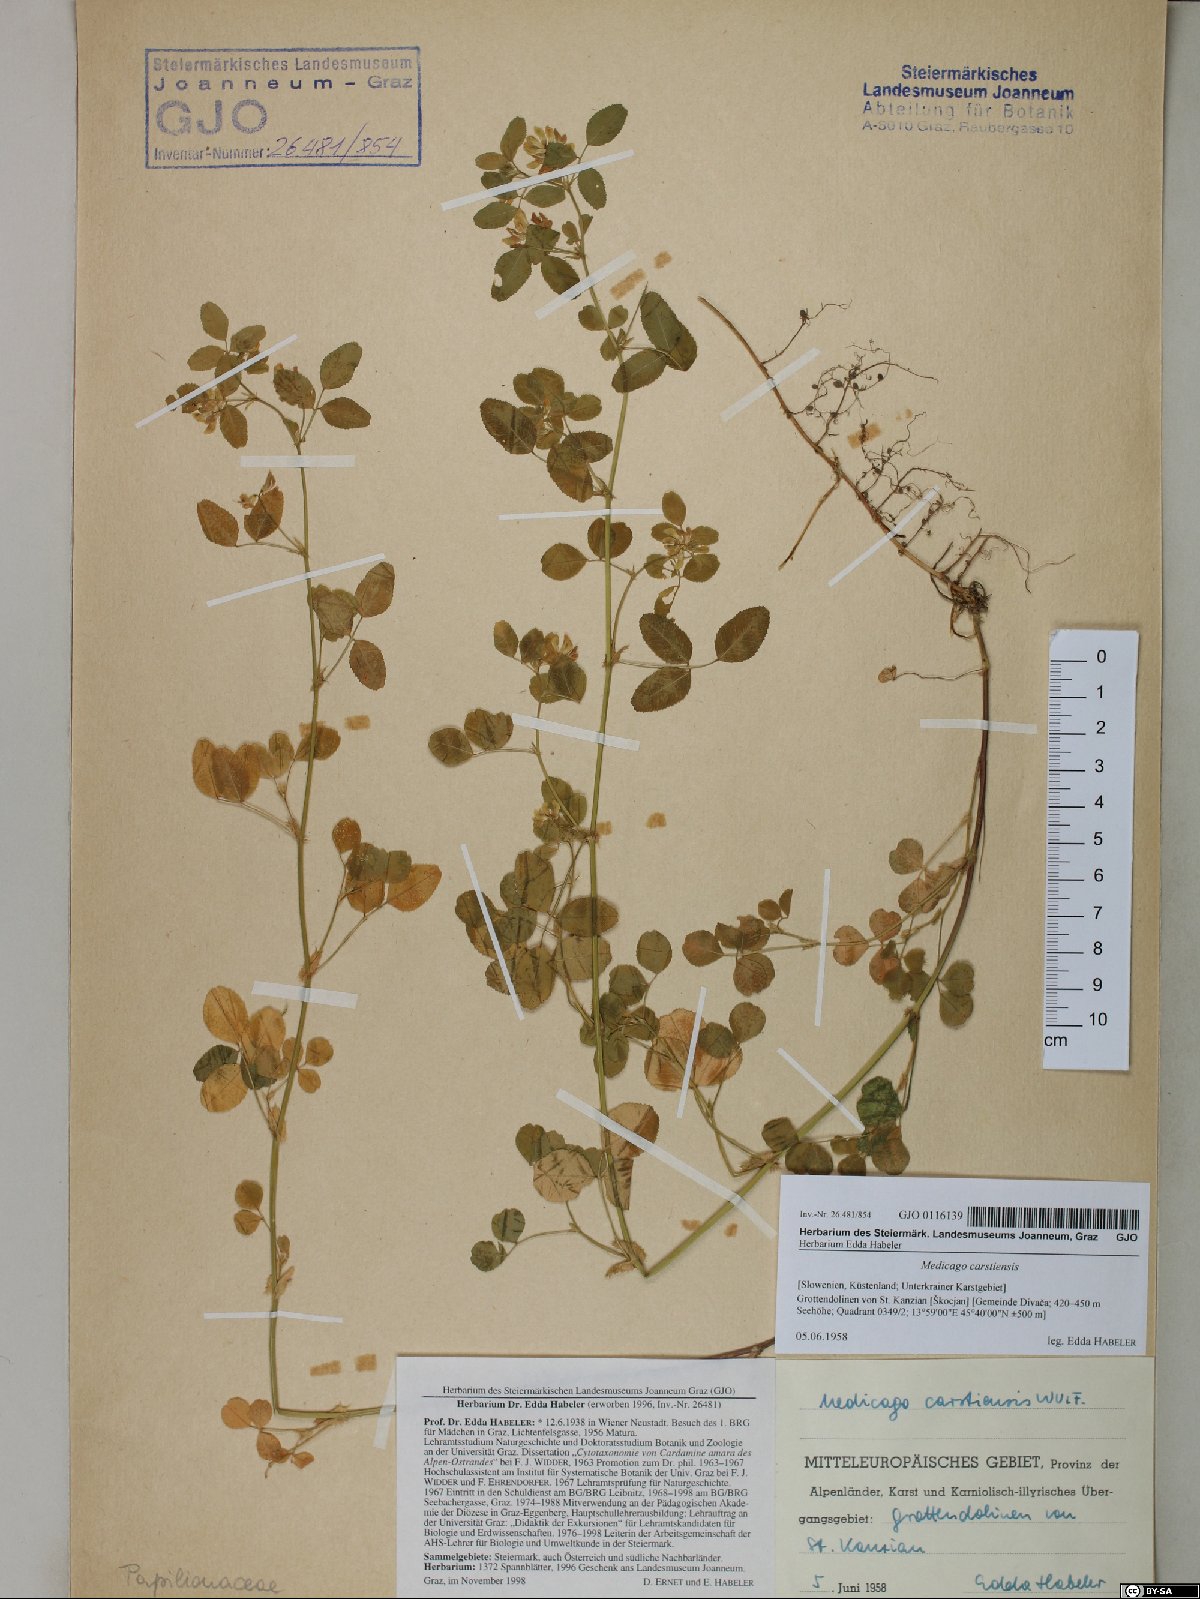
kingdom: Plantae
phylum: Tracheophyta
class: Magnoliopsida
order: Fabales
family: Fabaceae
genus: Medicago
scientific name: Medicago carstiensis
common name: Creeping-rooted medic
